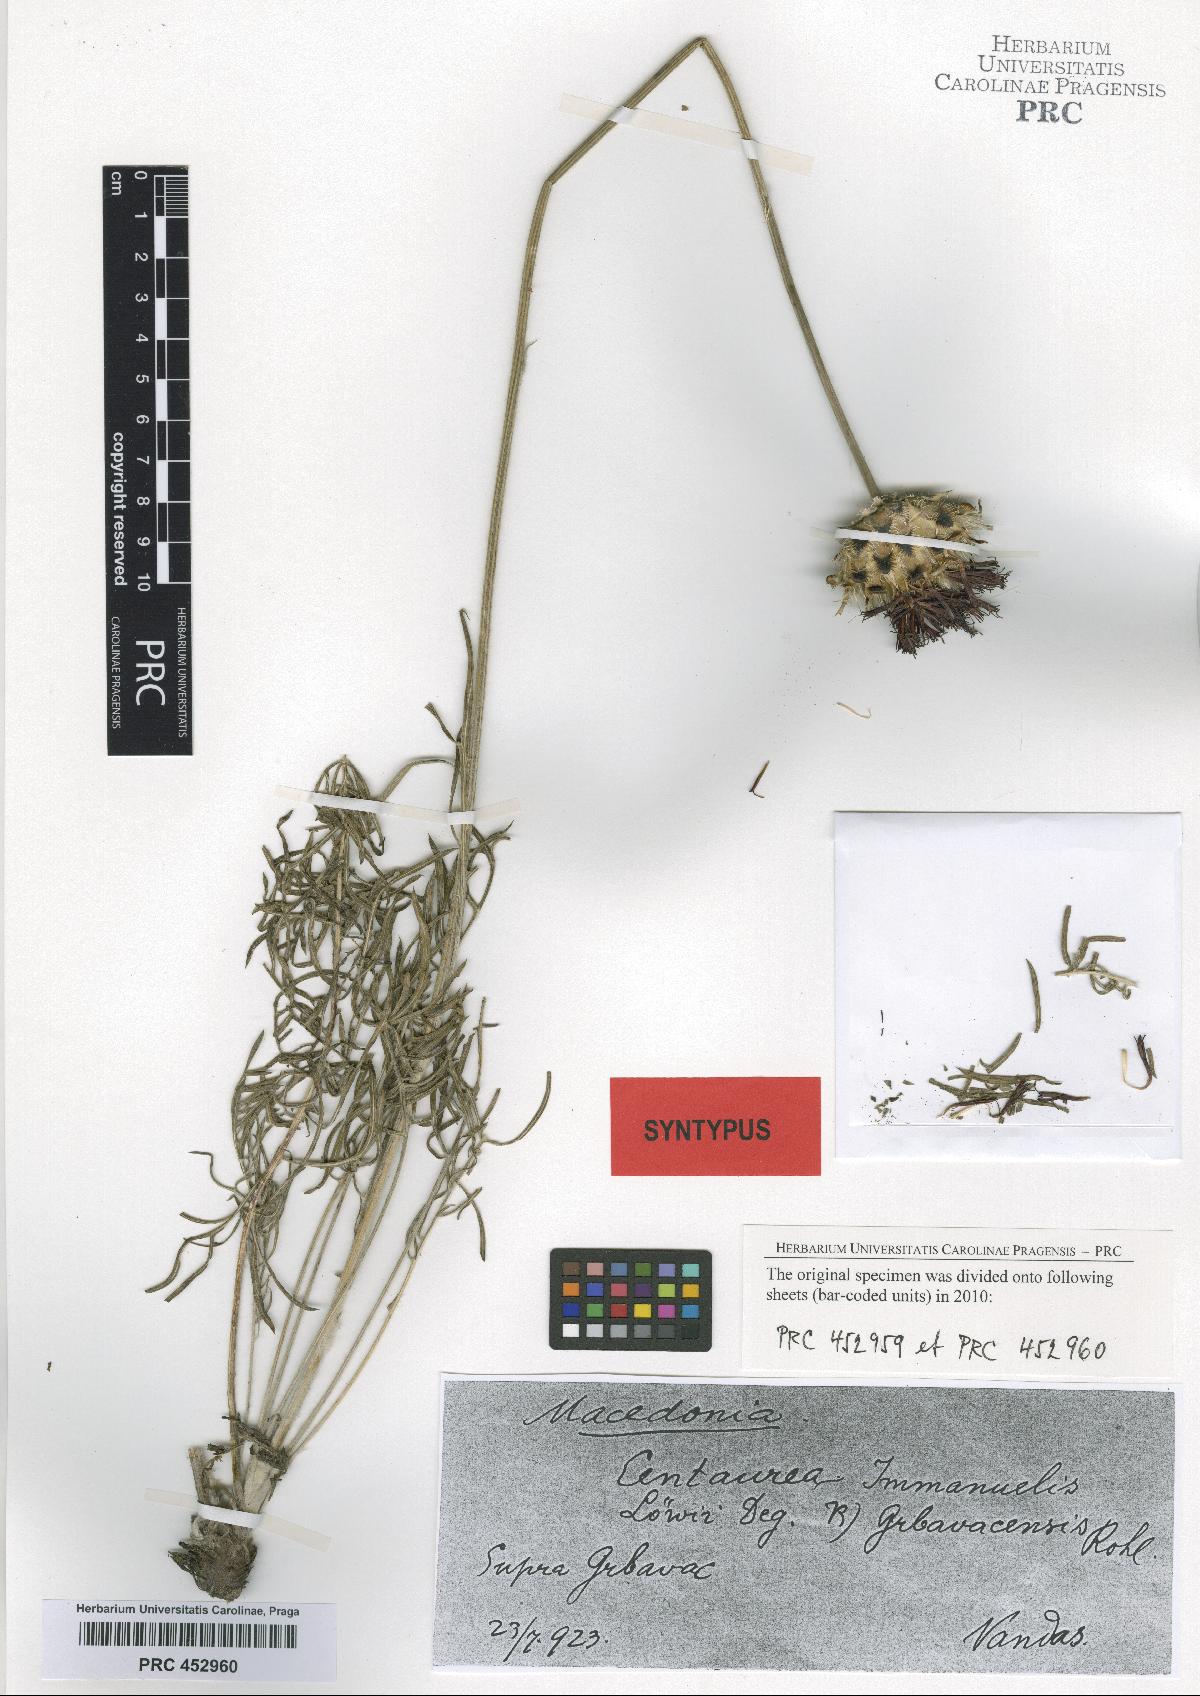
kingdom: Plantae
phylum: Tracheophyta
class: Magnoliopsida
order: Asterales
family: Asteraceae
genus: Centaurea
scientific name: Centaurea grbavacensis
